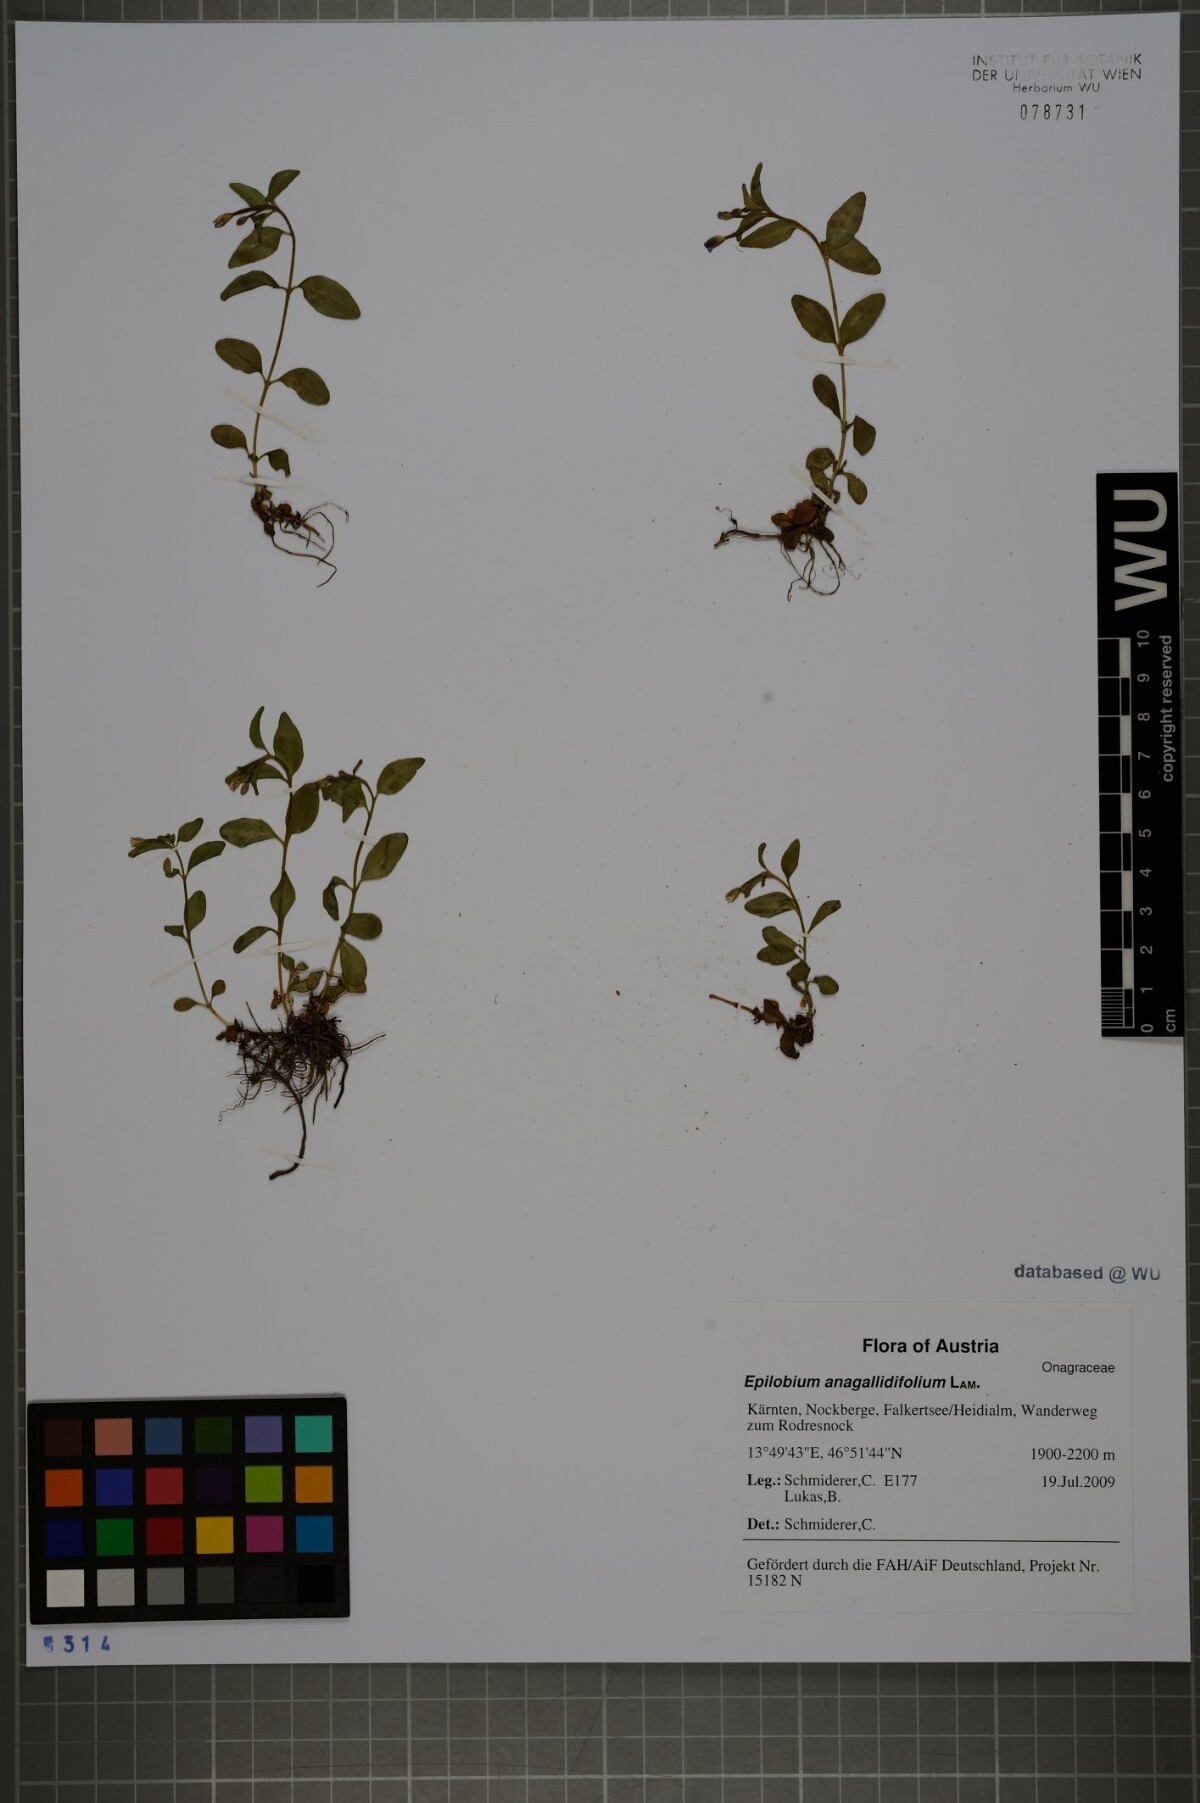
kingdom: Plantae
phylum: Tracheophyta
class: Magnoliopsida
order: Myrtales
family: Onagraceae
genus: Epilobium
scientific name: Epilobium anagallidifolium
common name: Alpine willowherb
